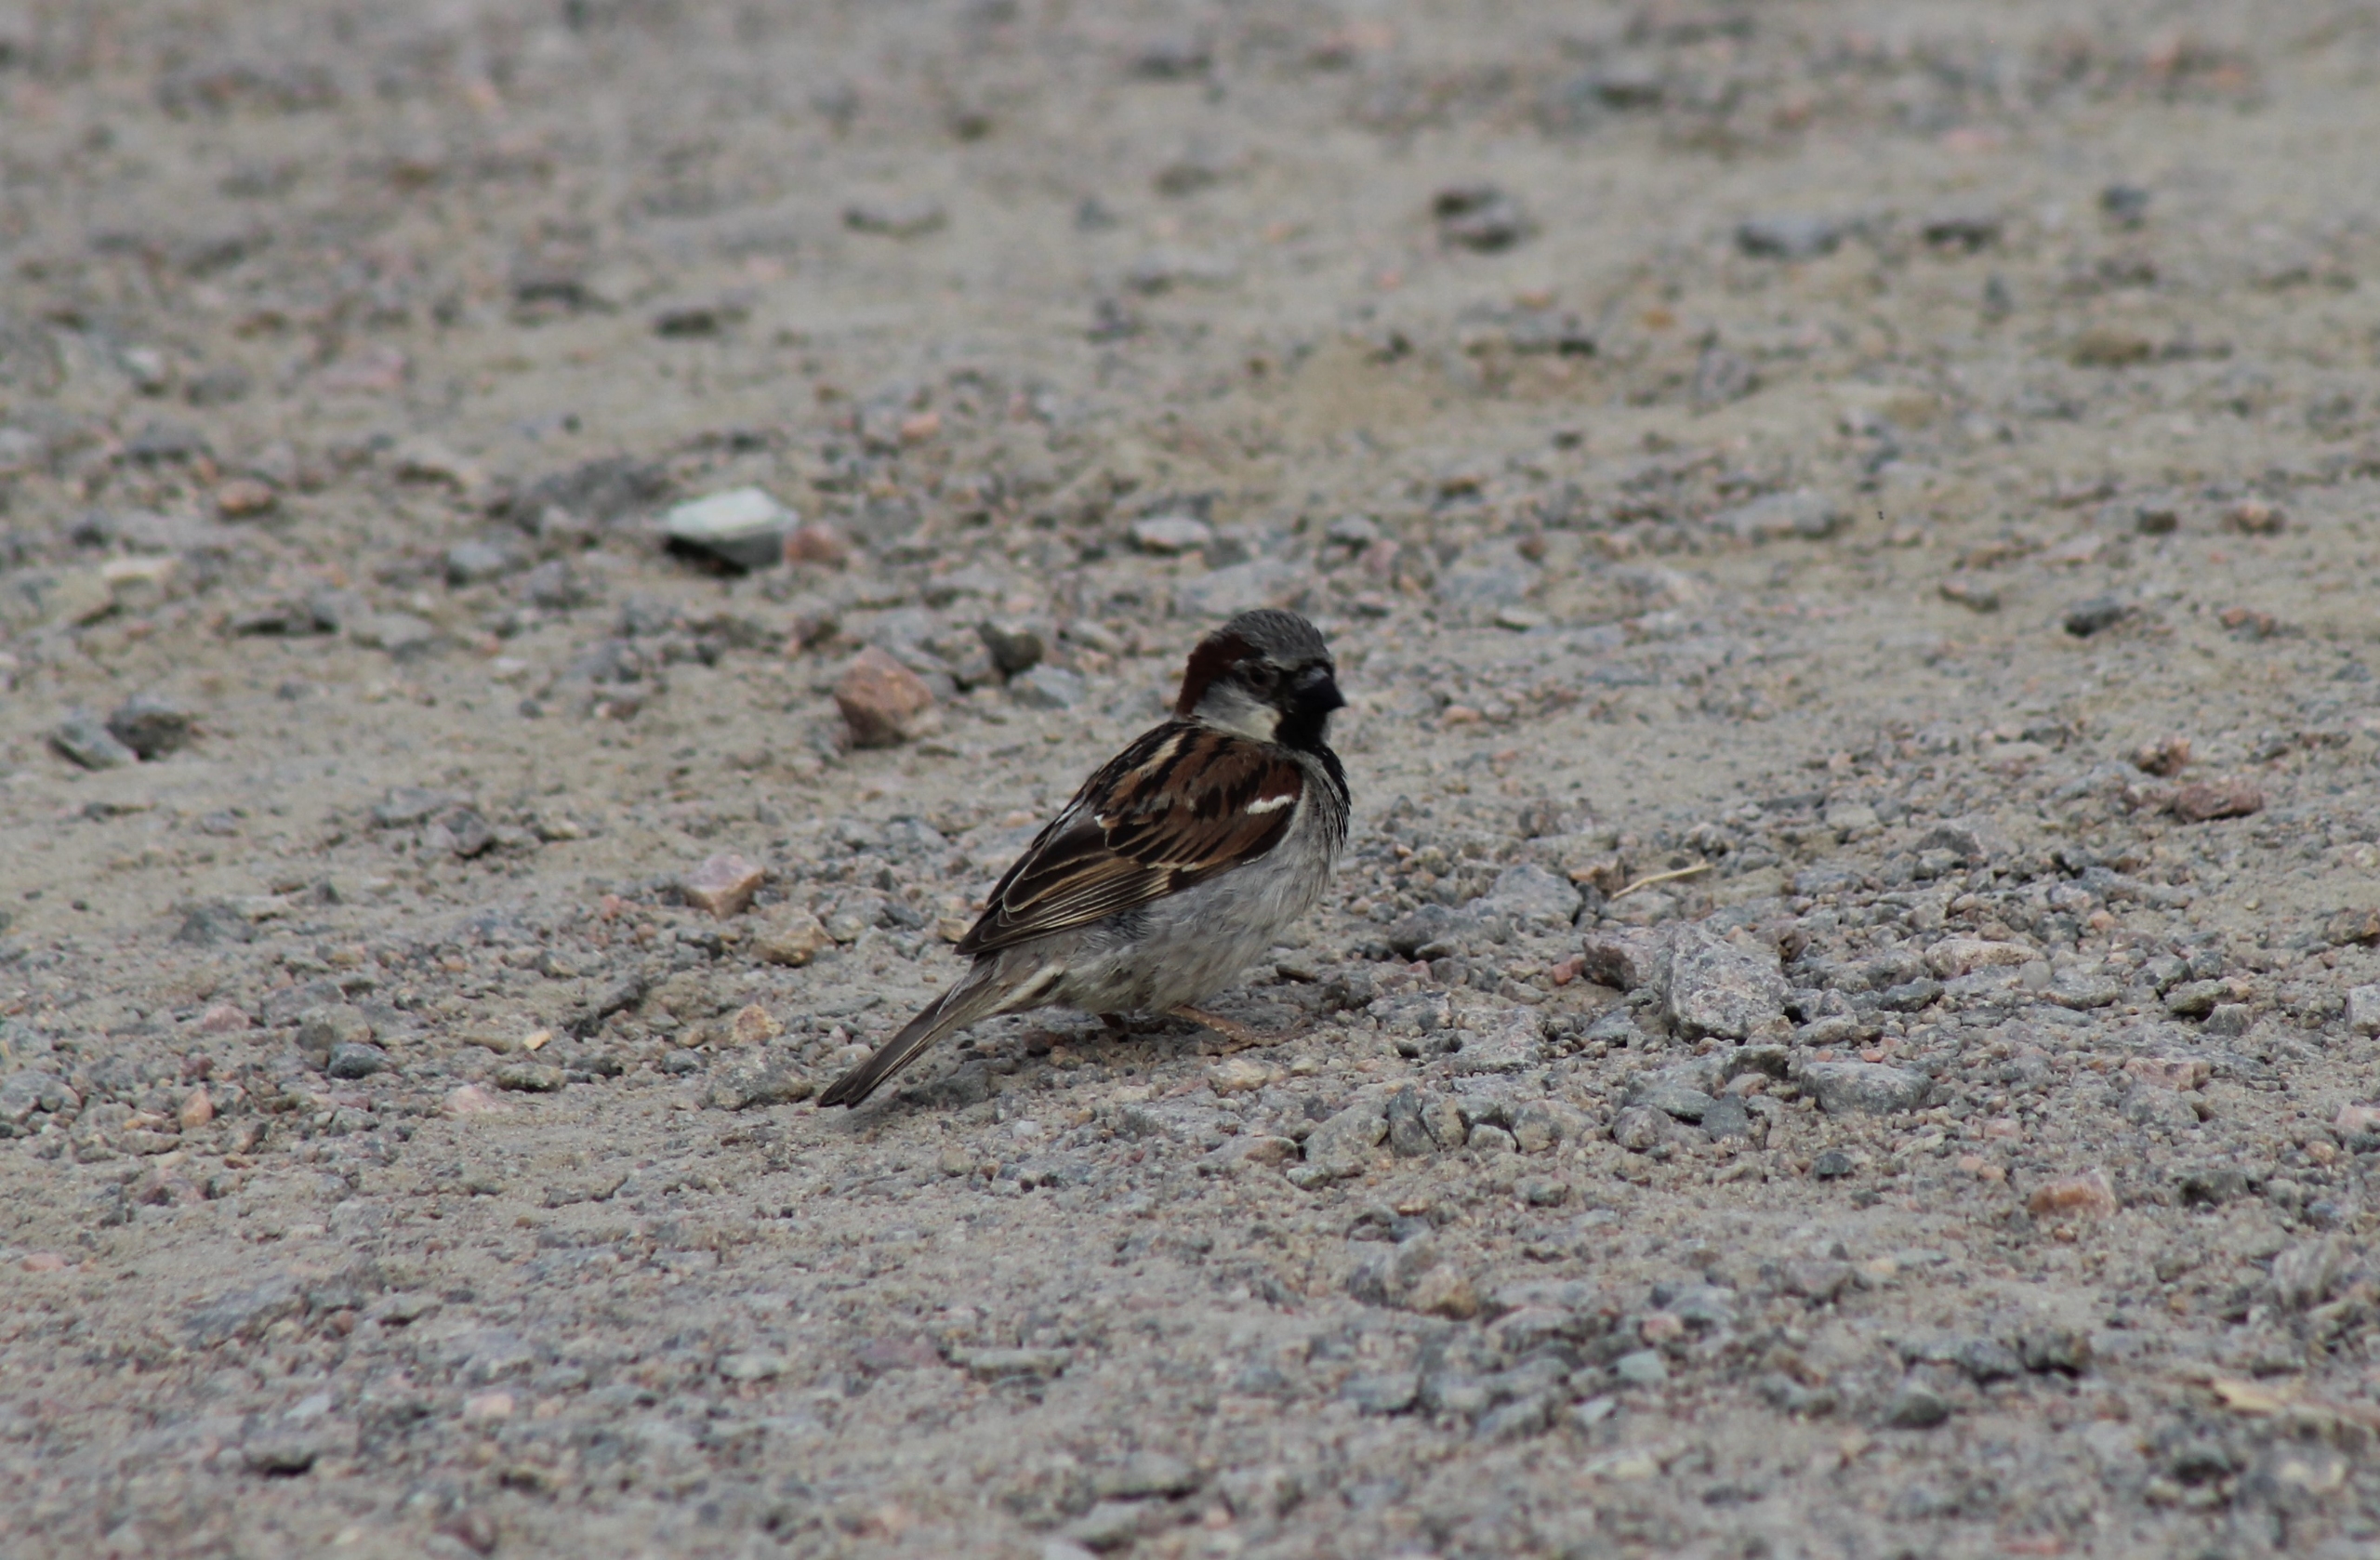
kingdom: Animalia
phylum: Chordata
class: Aves
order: Passeriformes
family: Passeridae
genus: Passer
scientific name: Passer domesticus
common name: Gråspurv
